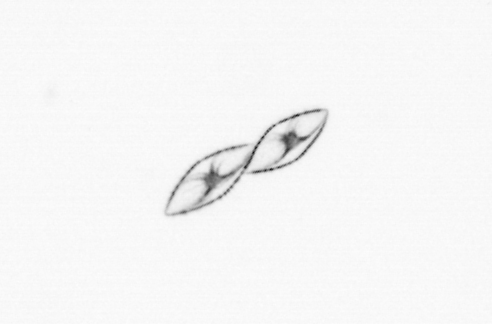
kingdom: Chromista
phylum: Myzozoa
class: Dinophyceae
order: Noctilucales
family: Noctilucaceae
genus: Noctiluca
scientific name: Noctiluca scintillans
